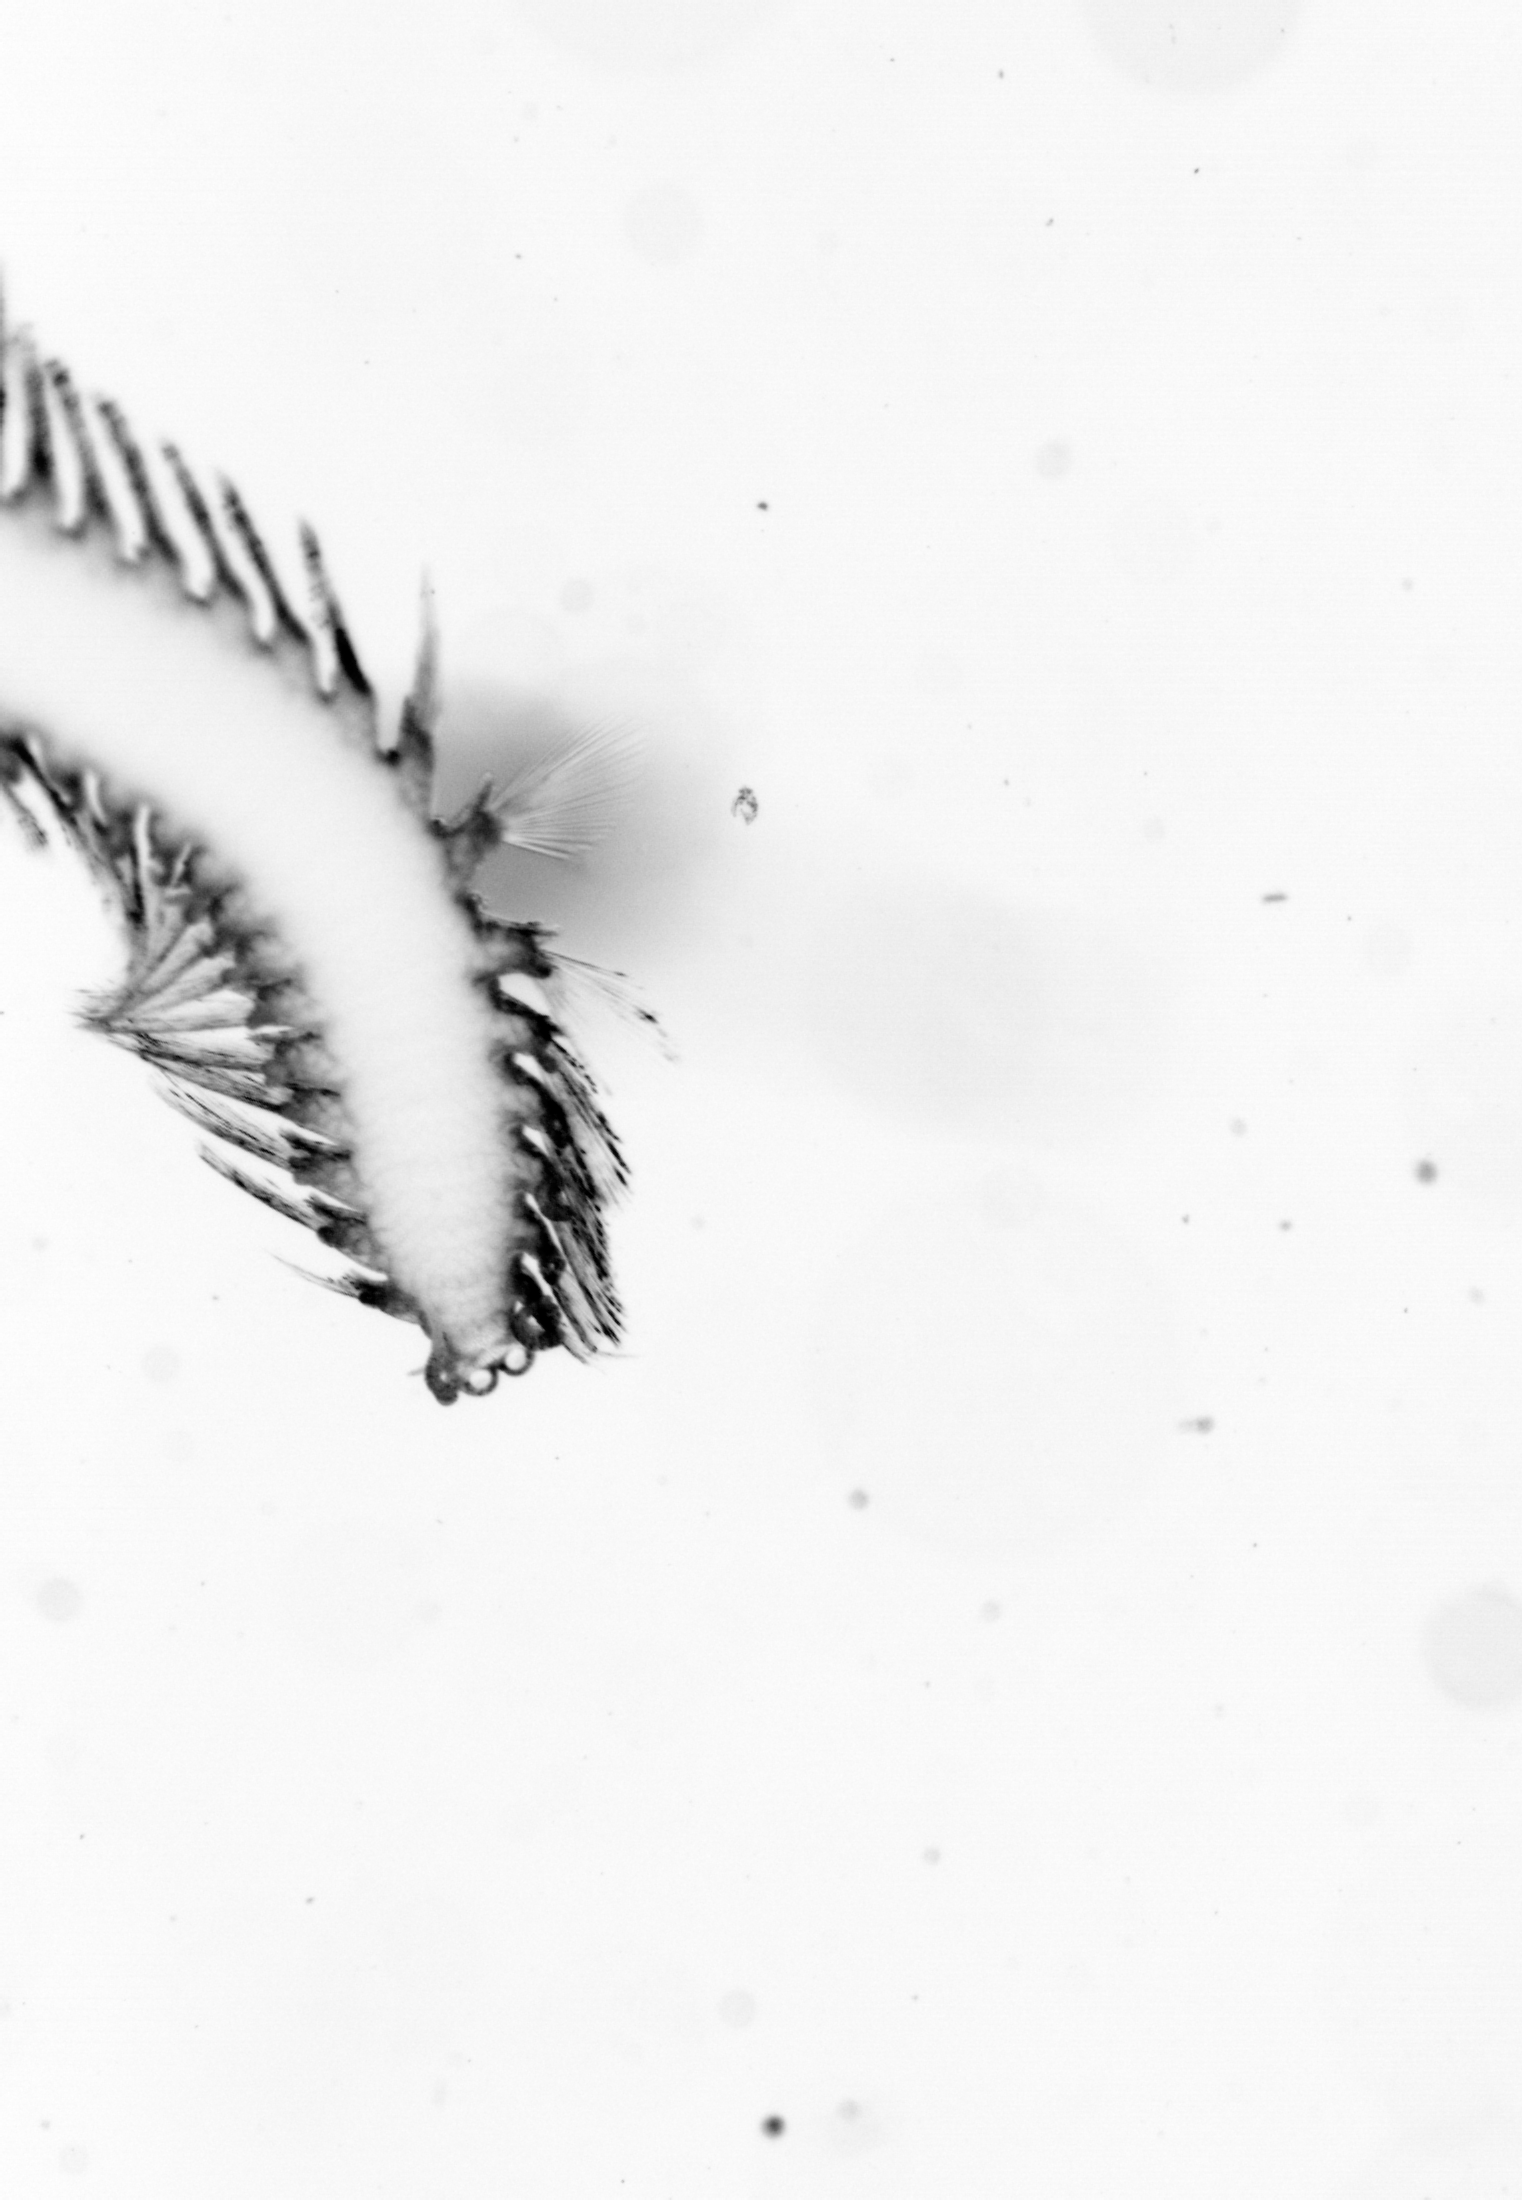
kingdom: Animalia
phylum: Annelida
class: Polychaeta
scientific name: Polychaeta
